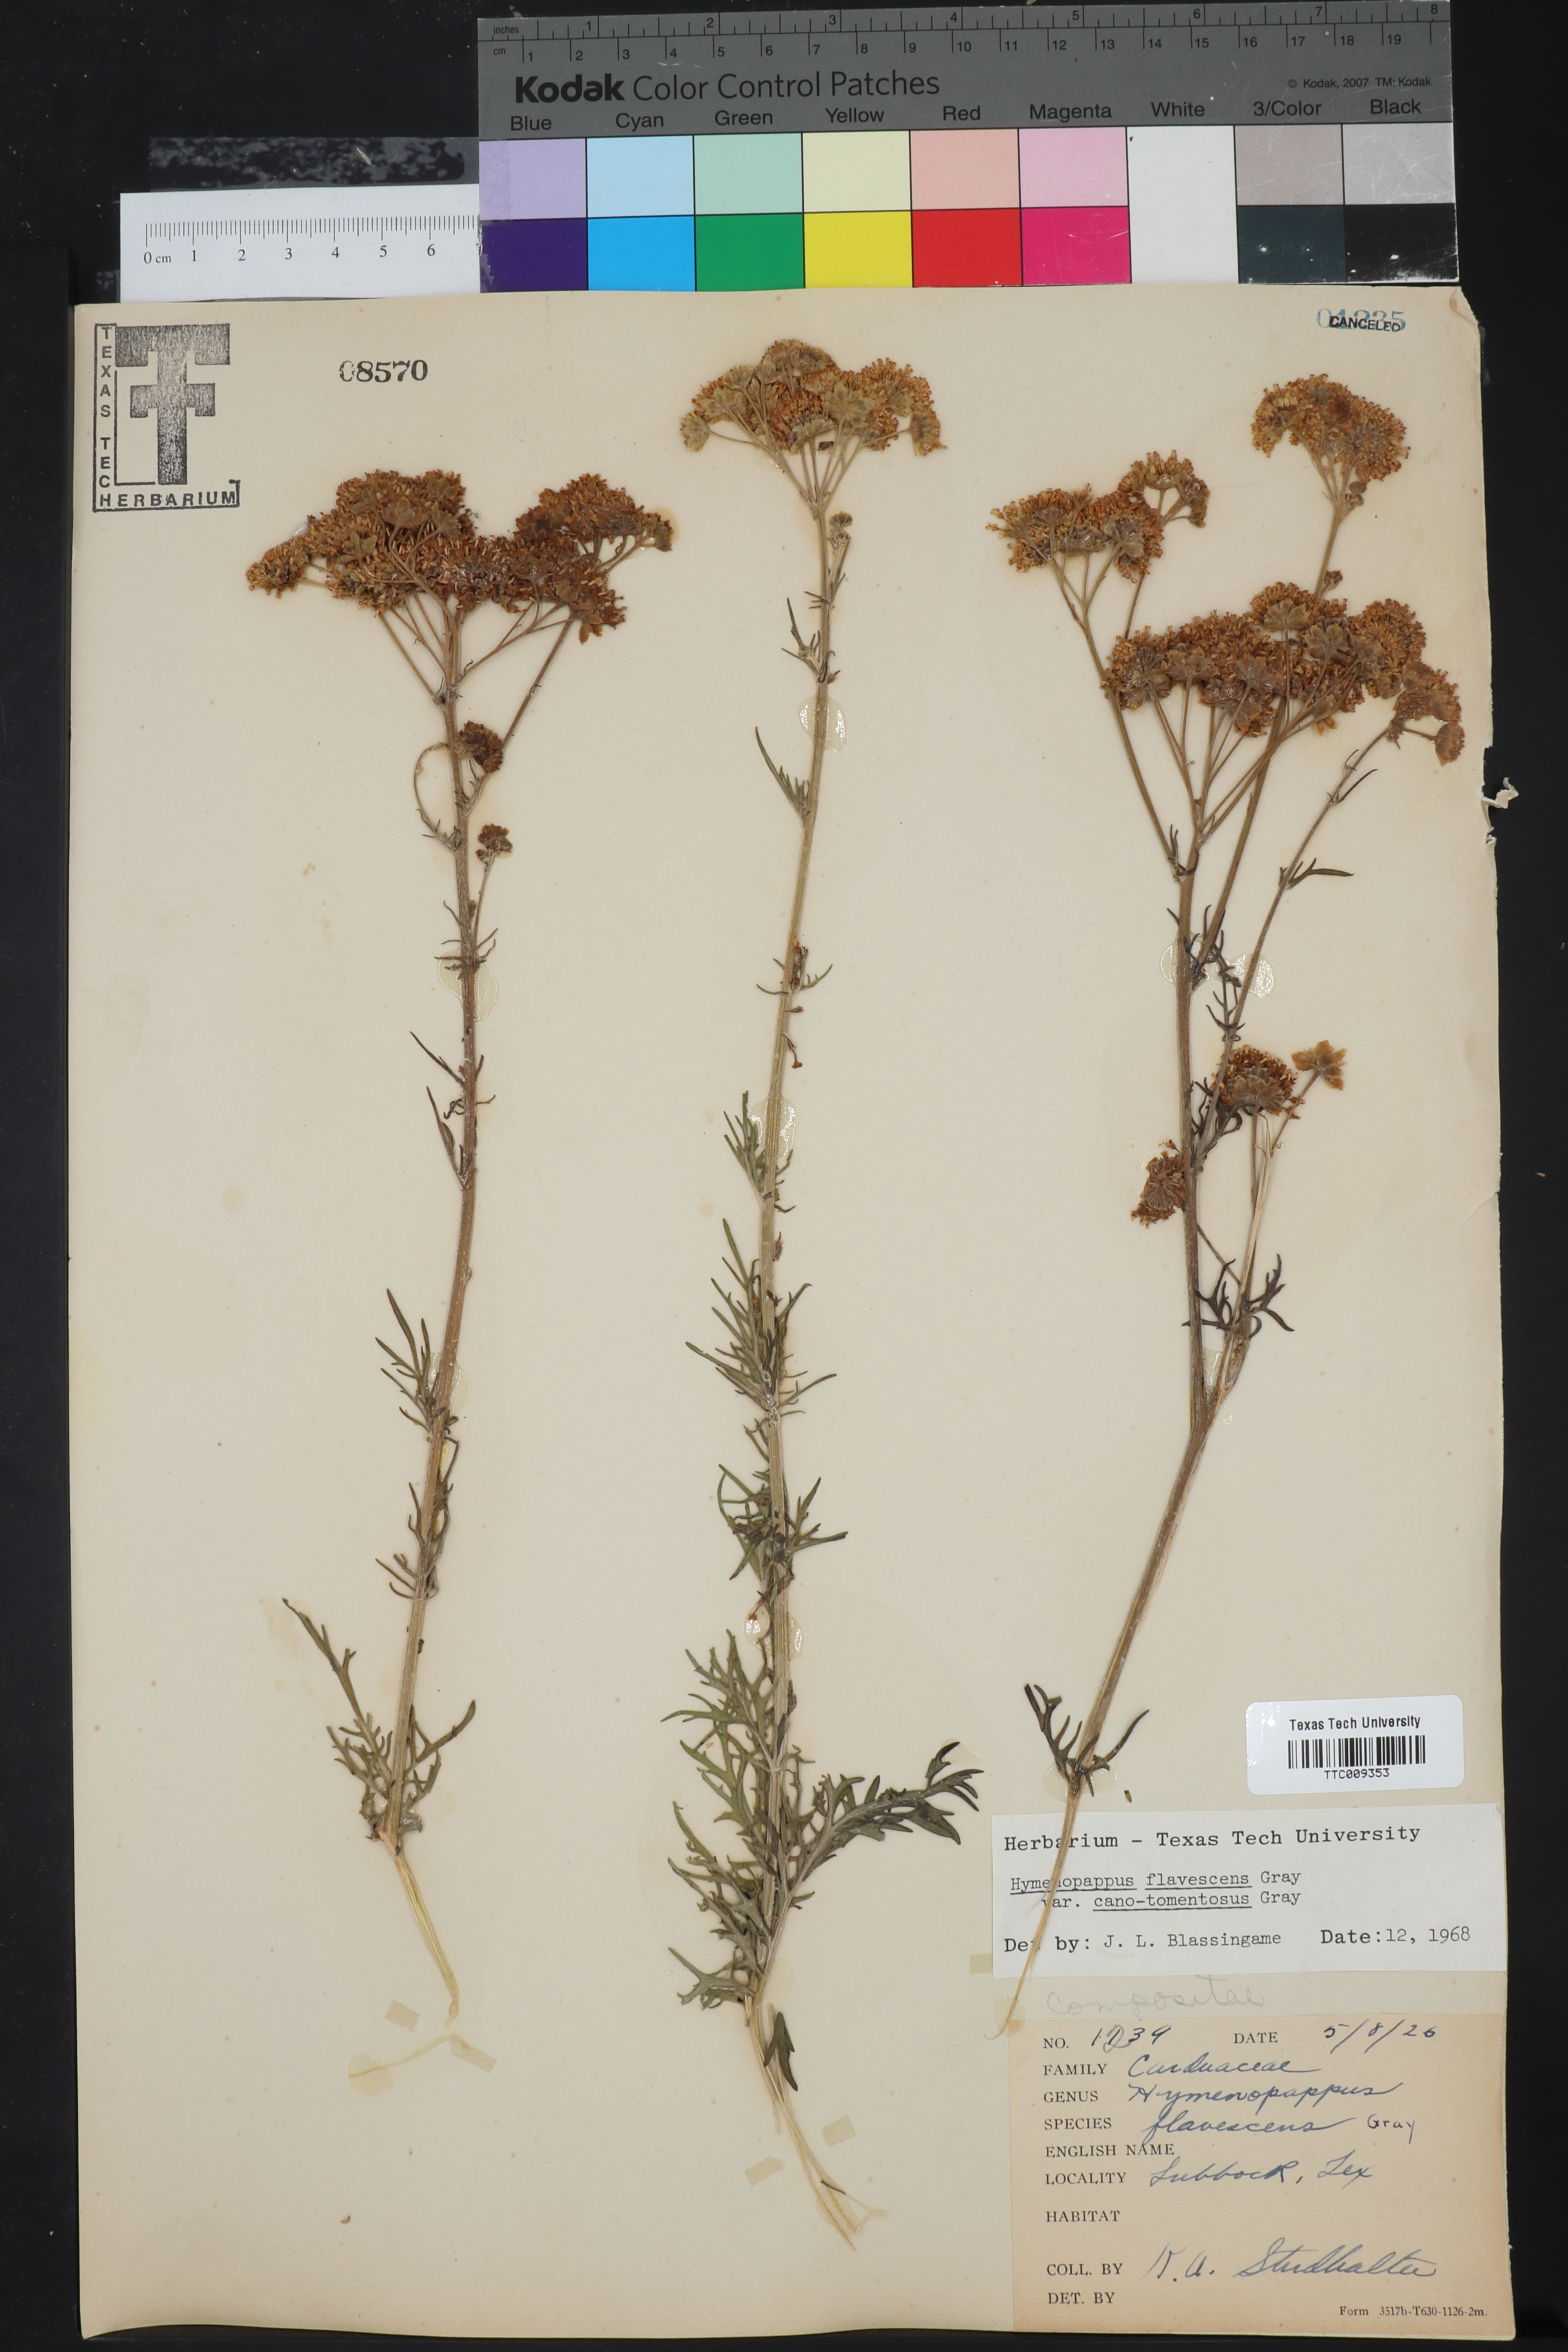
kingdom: Plantae
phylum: Tracheophyta
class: Magnoliopsida
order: Asterales
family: Asteraceae
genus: Hymenopappus
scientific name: Hymenopappus flavescens
